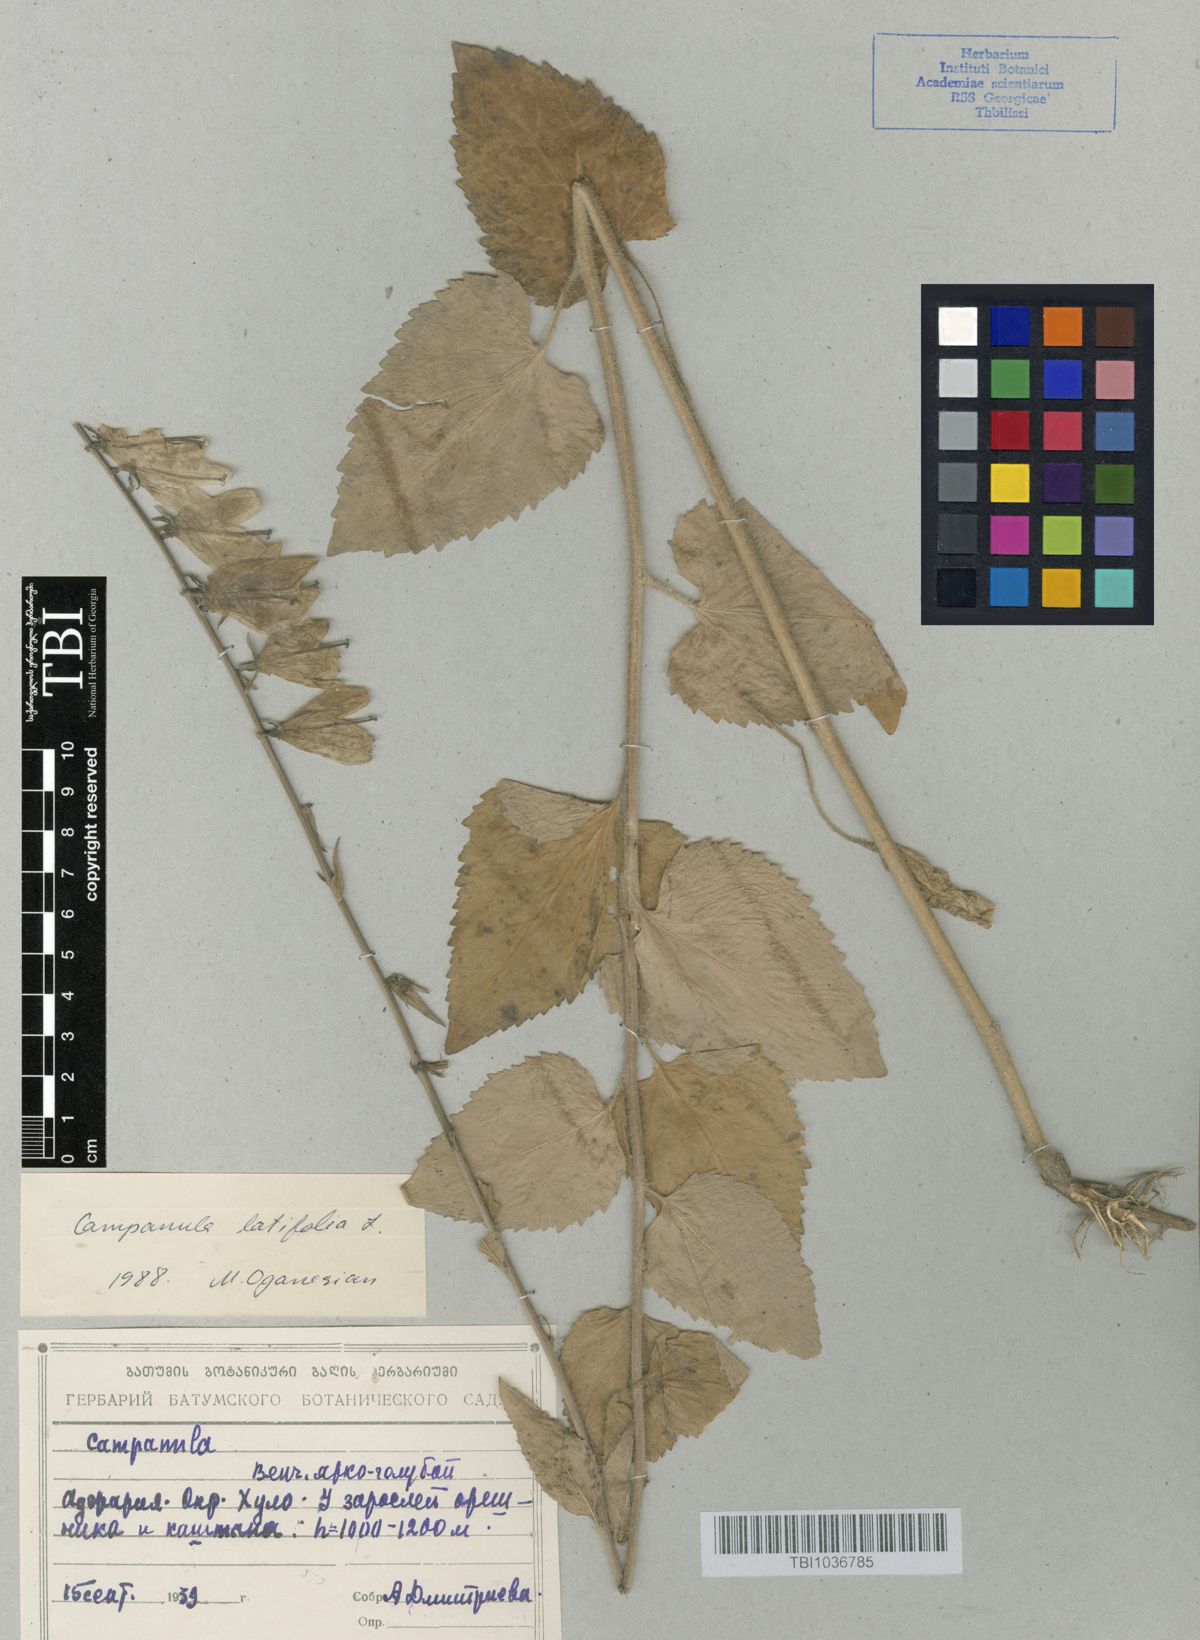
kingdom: Plantae
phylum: Tracheophyta
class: Magnoliopsida
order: Asterales
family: Campanulaceae
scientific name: Campanulaceae
